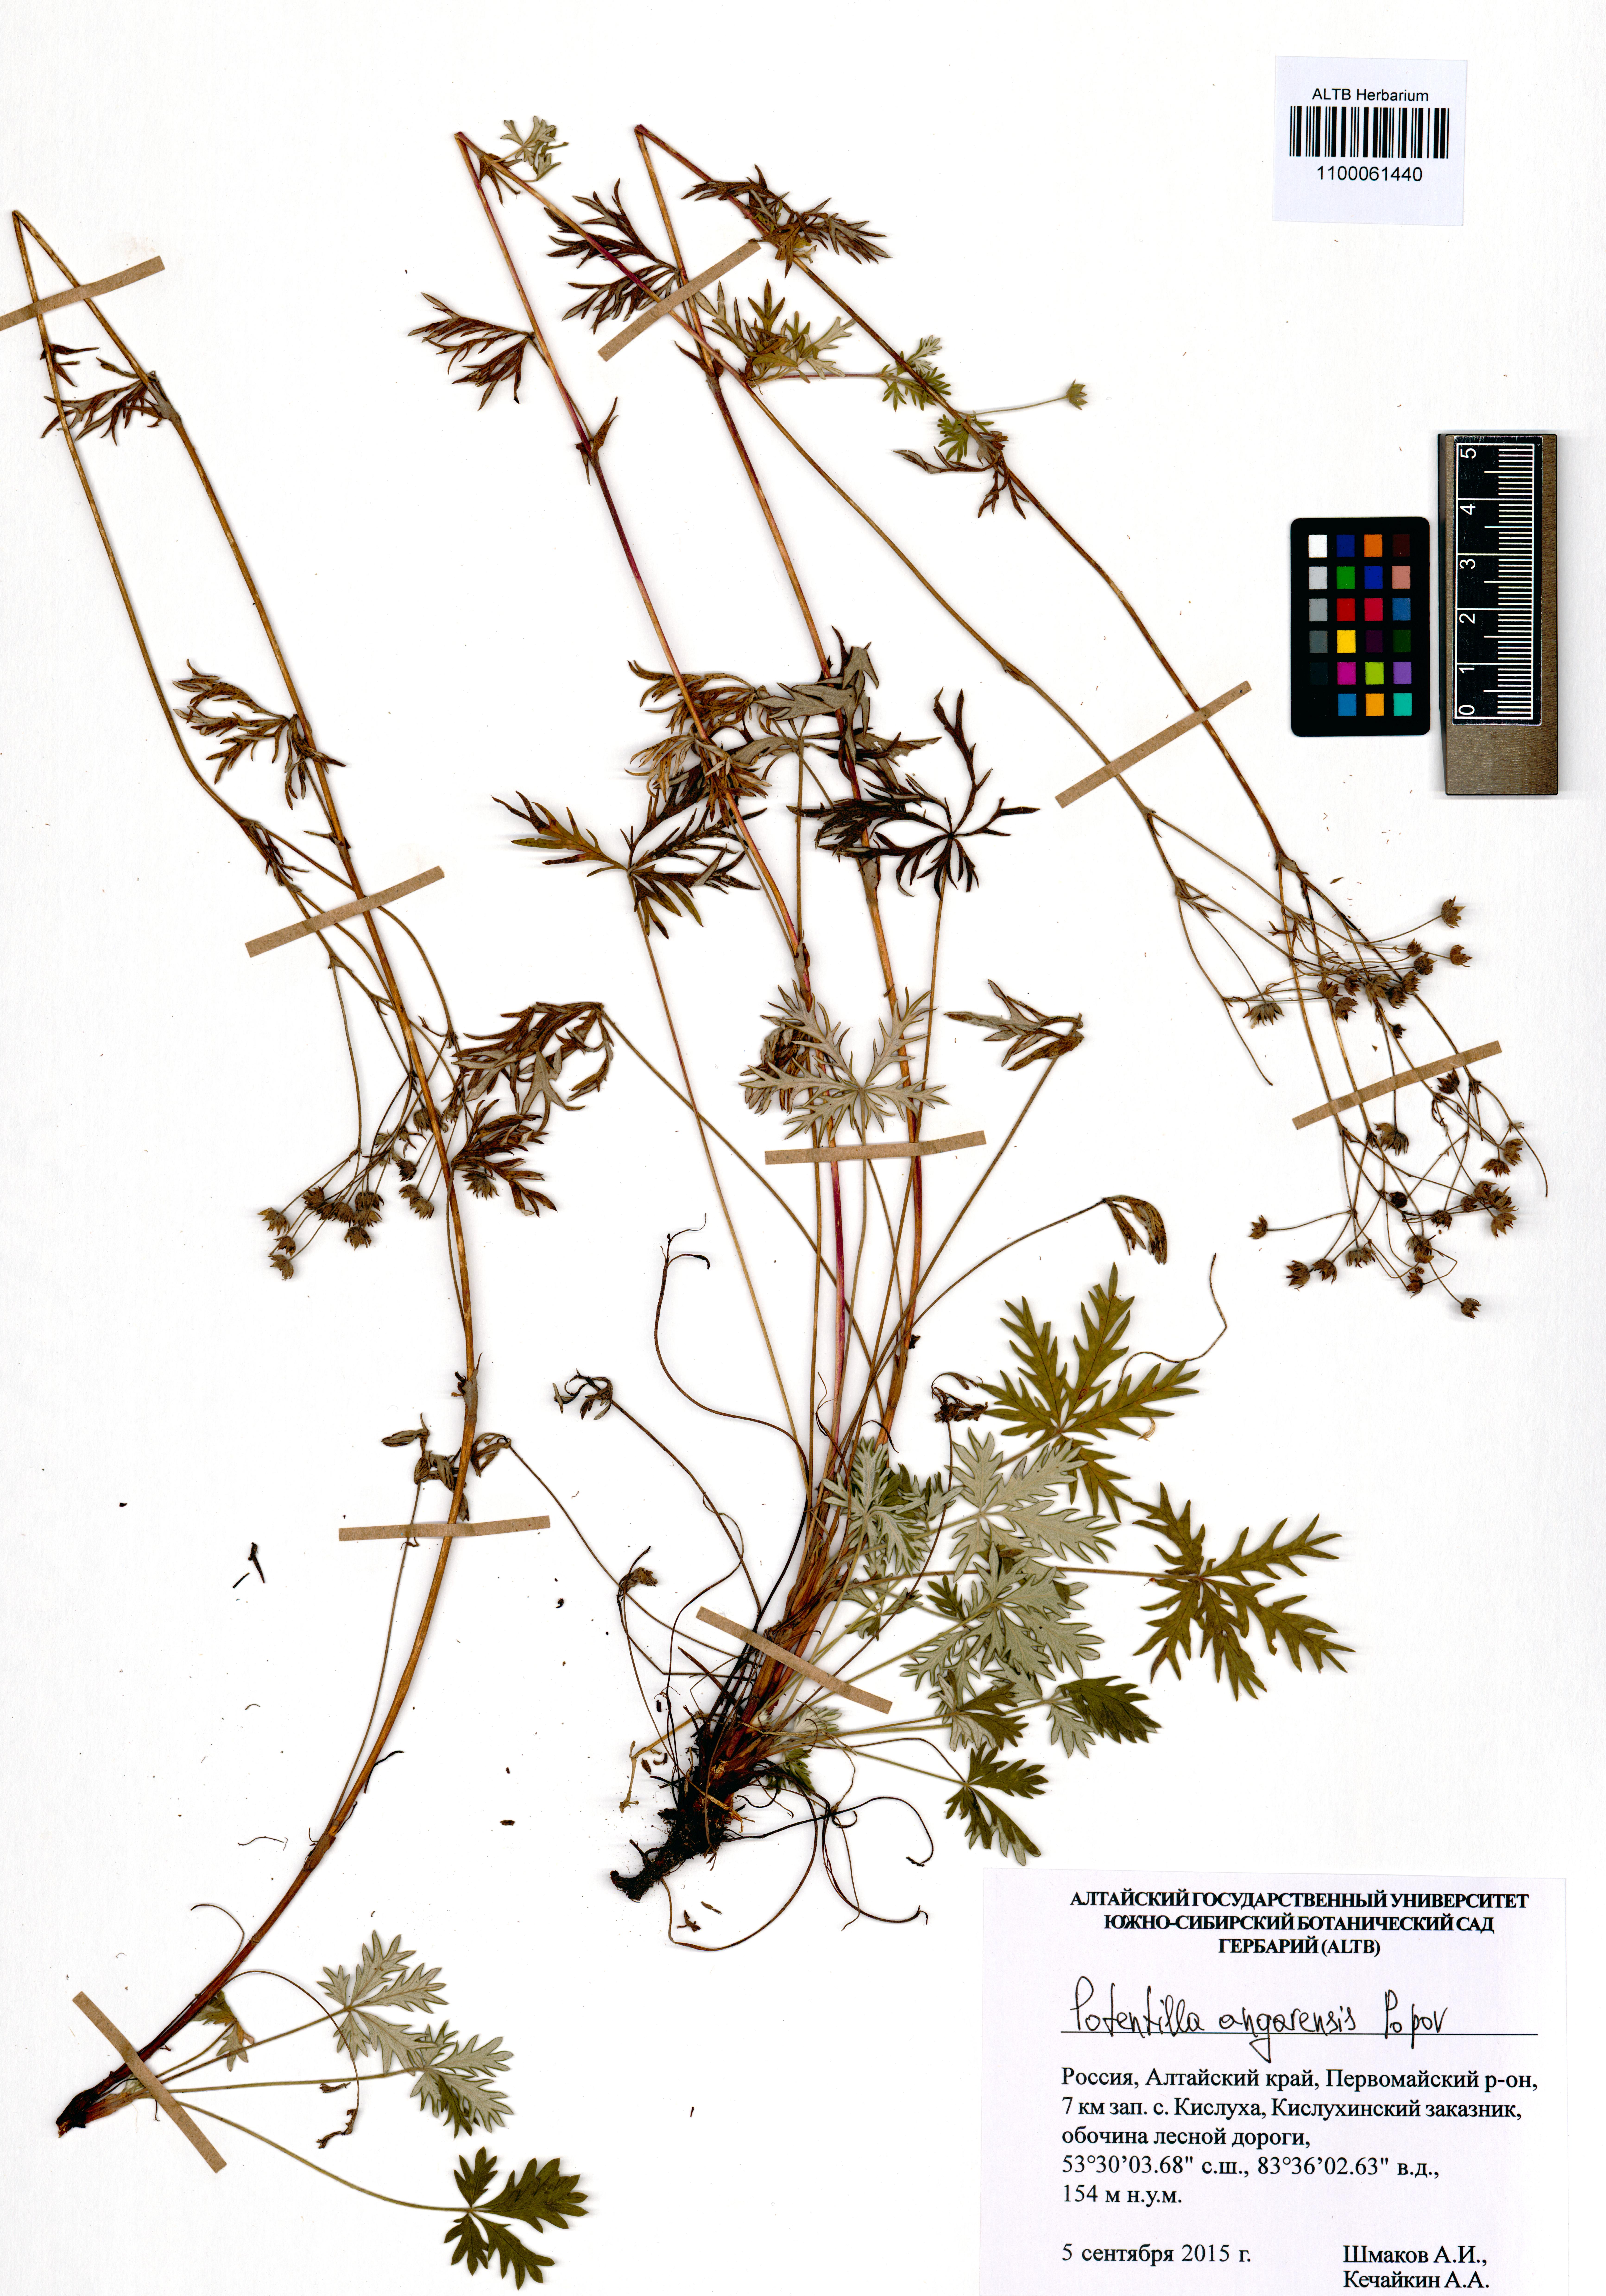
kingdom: Plantae
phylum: Tracheophyta
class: Magnoliopsida
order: Rosales
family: Rosaceae
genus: Potentilla
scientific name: Potentilla angarensis
